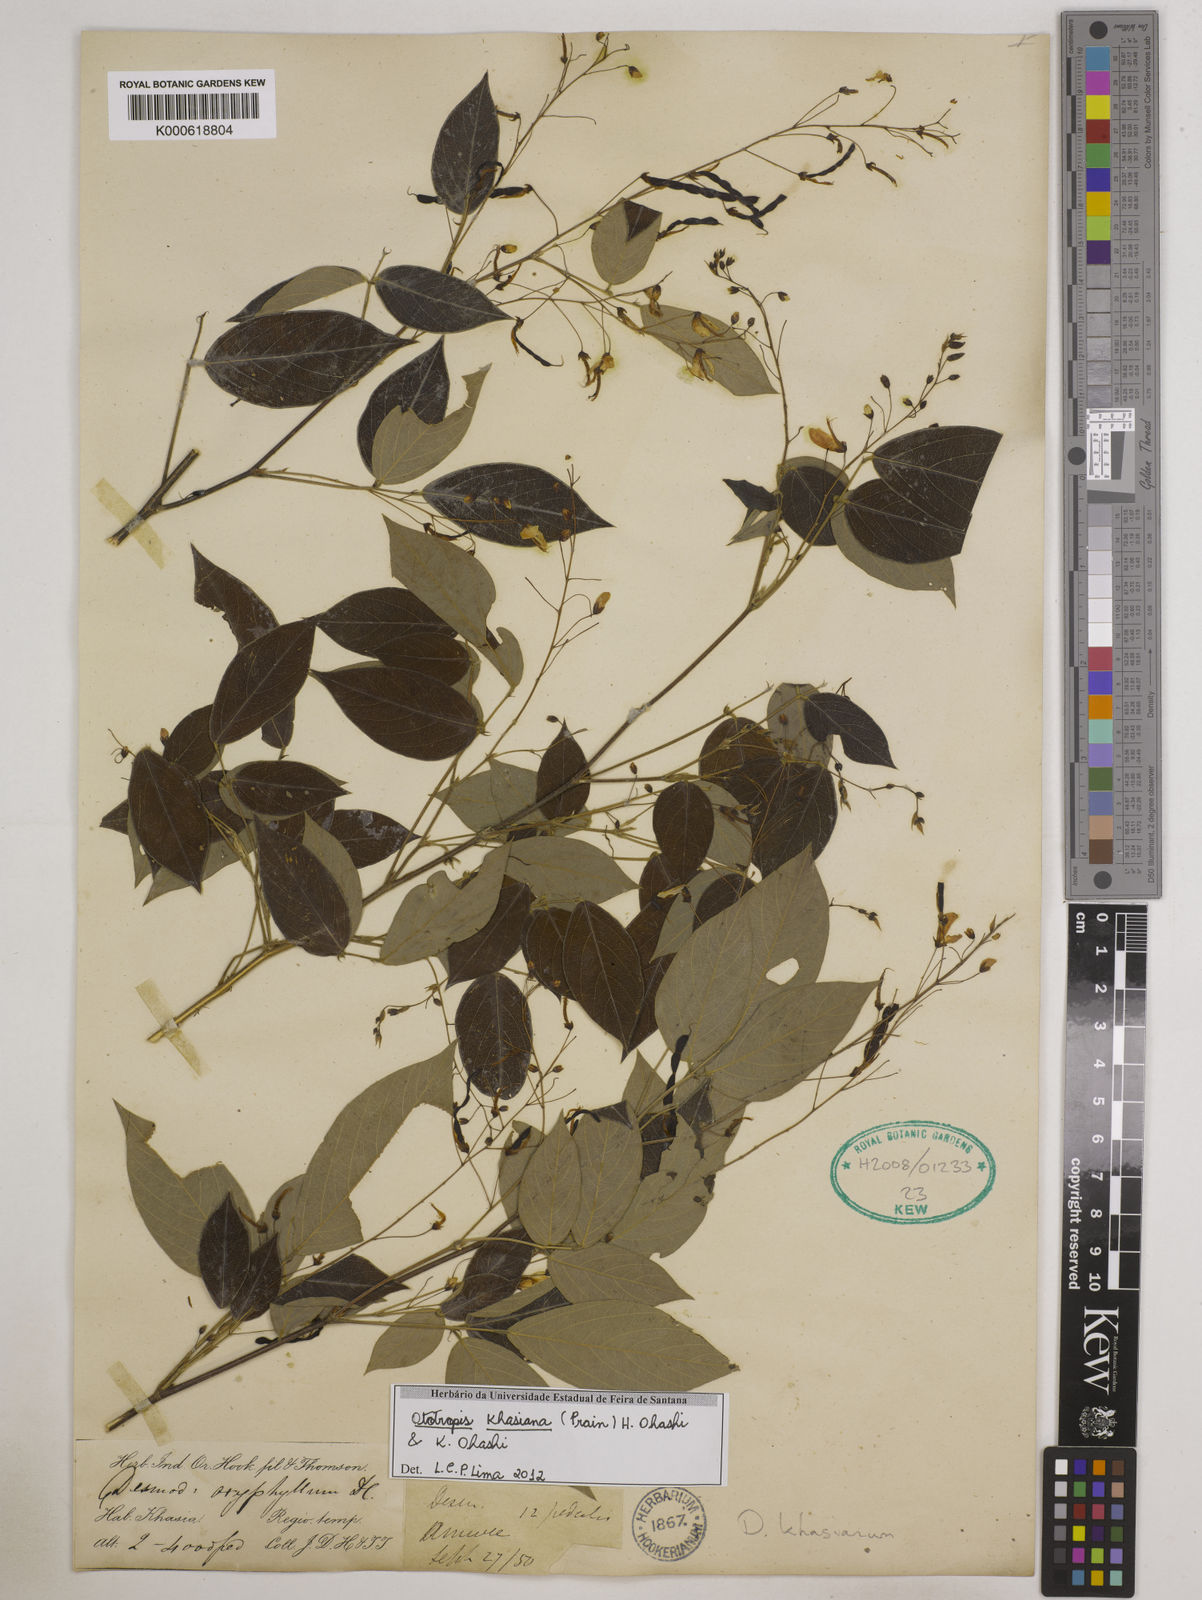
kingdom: Plantae
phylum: Tracheophyta
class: Magnoliopsida
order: Fabales
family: Fabaceae
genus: Ototropis
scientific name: Ototropis khasiana
